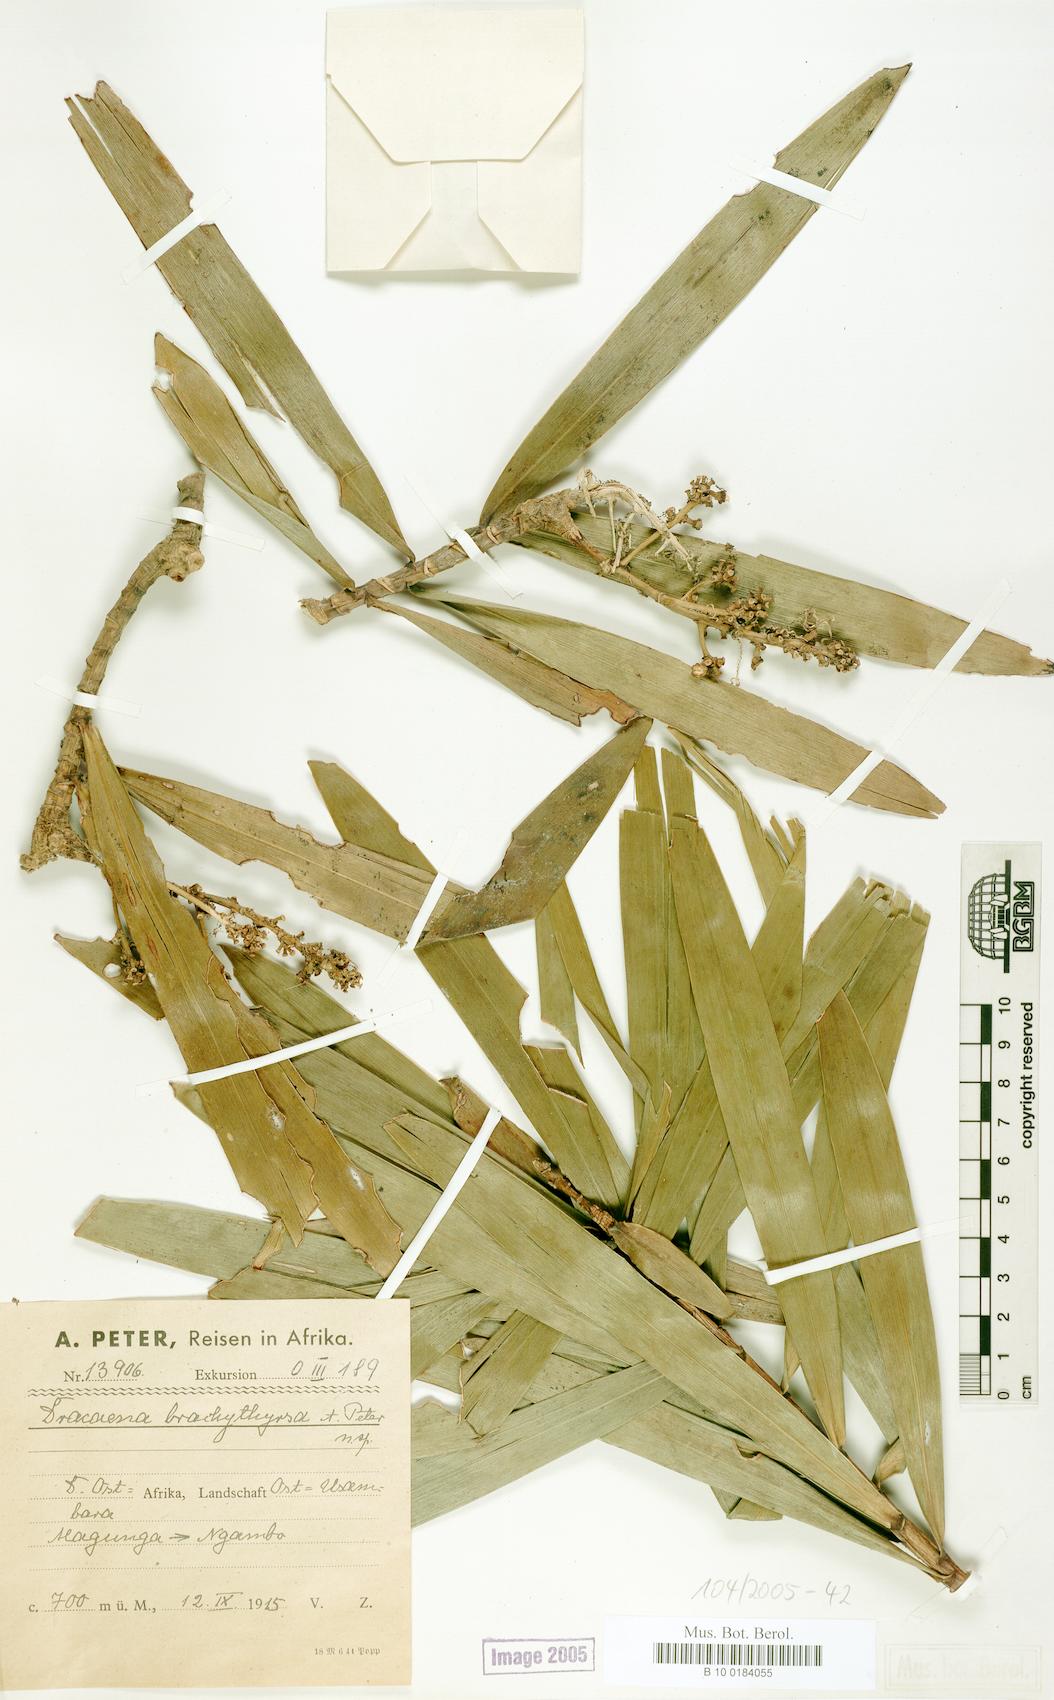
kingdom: Plantae
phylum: Tracheophyta
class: Liliopsida
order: Asparagales
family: Asparagaceae
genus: Dracaena
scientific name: Dracaena mannii
